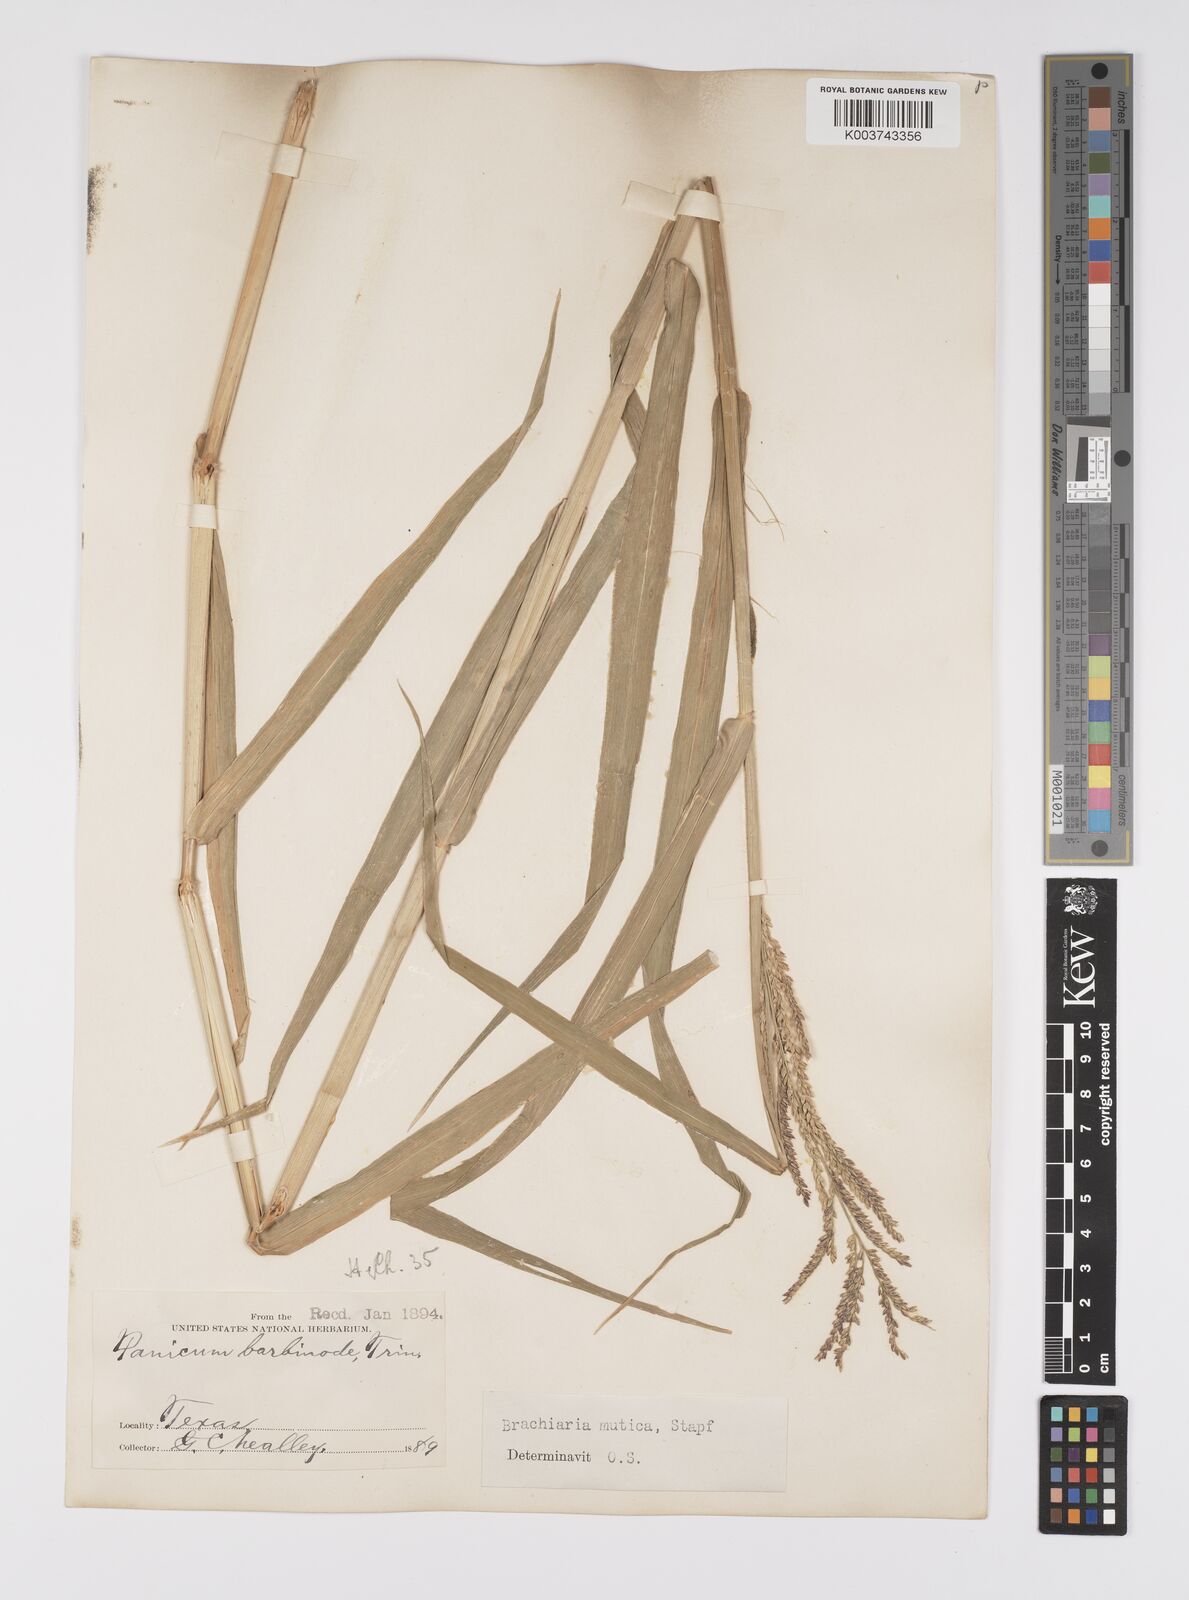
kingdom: Plantae
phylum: Tracheophyta
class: Liliopsida
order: Poales
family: Poaceae
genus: Urochloa
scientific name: Urochloa mutica
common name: Para grass
